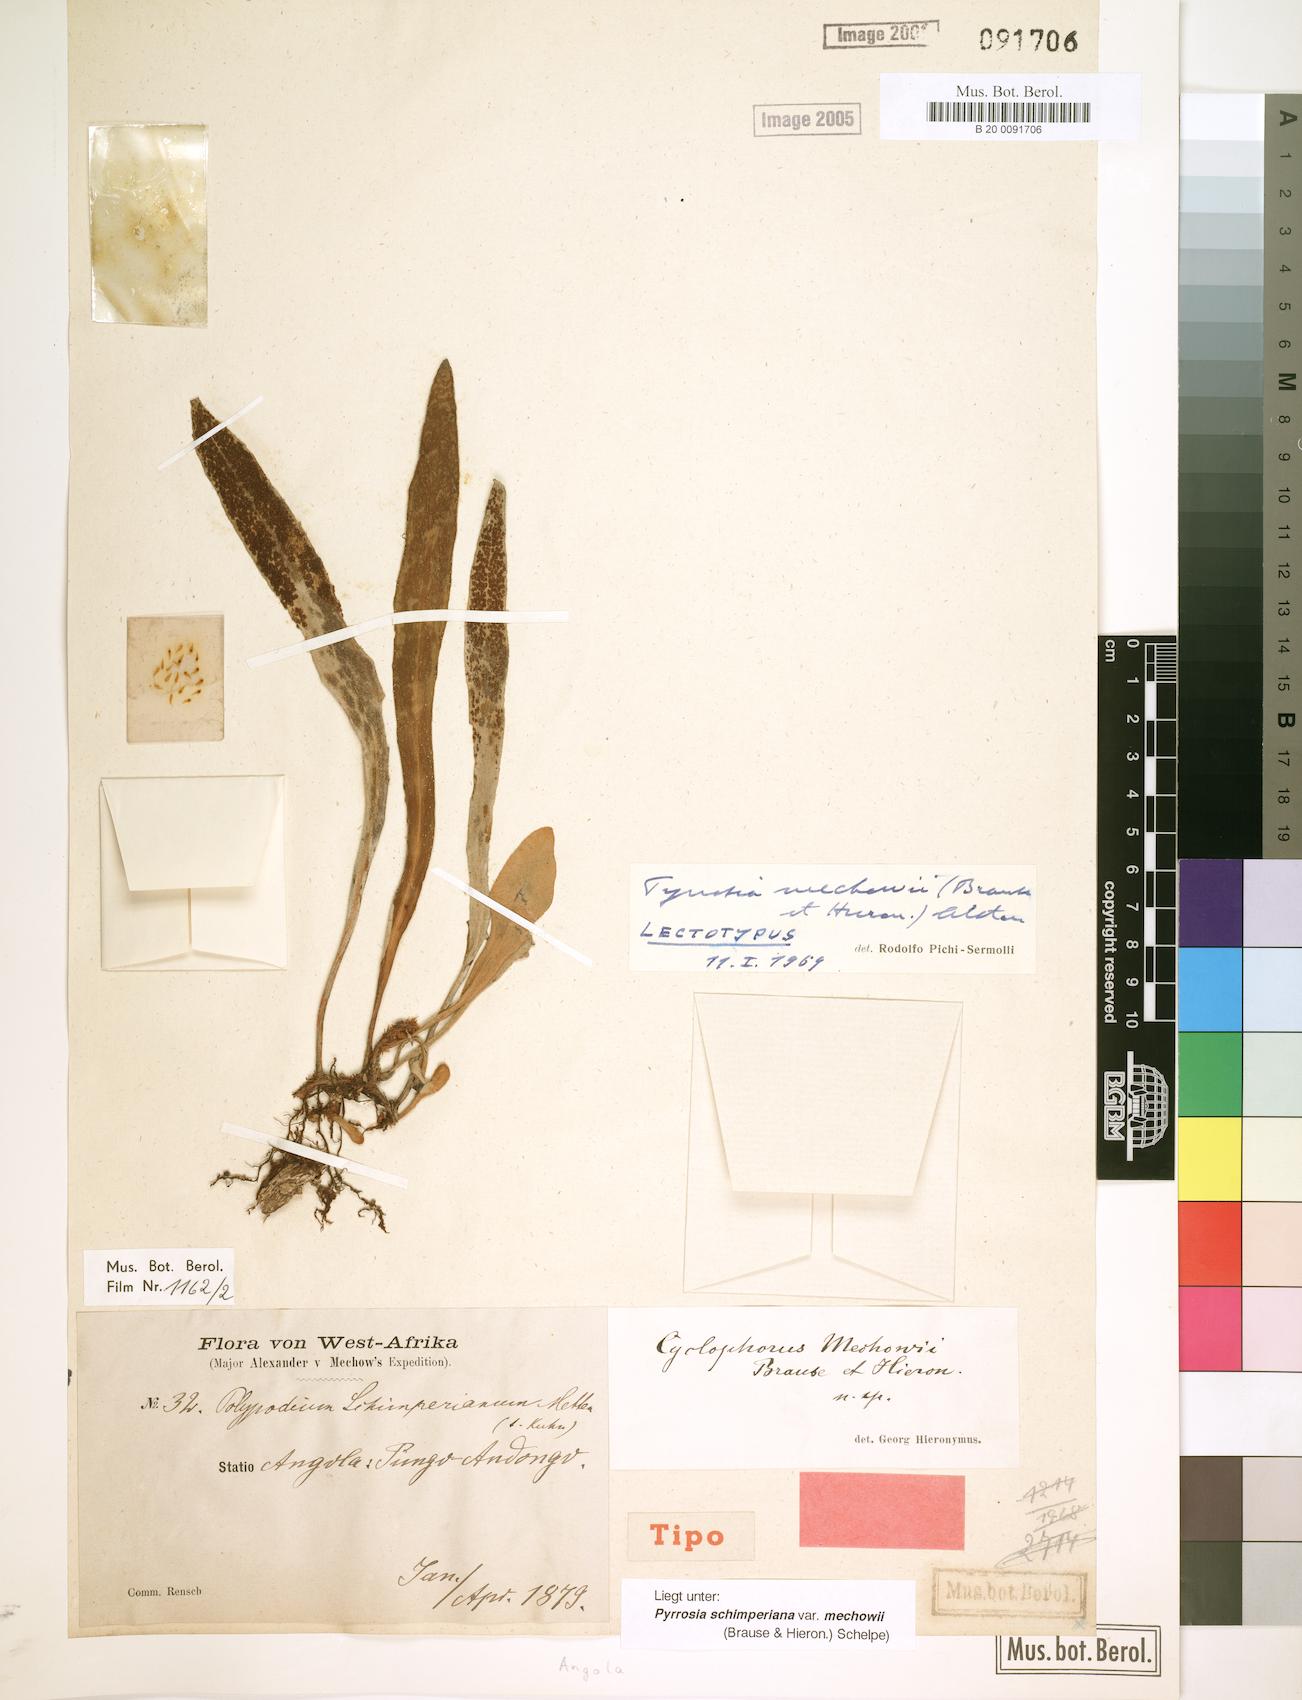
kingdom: Plantae
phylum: Tracheophyta
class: Polypodiopsida
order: Polypodiales
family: Polypodiaceae
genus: Hovenkampia
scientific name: Hovenkampia schimperiana
